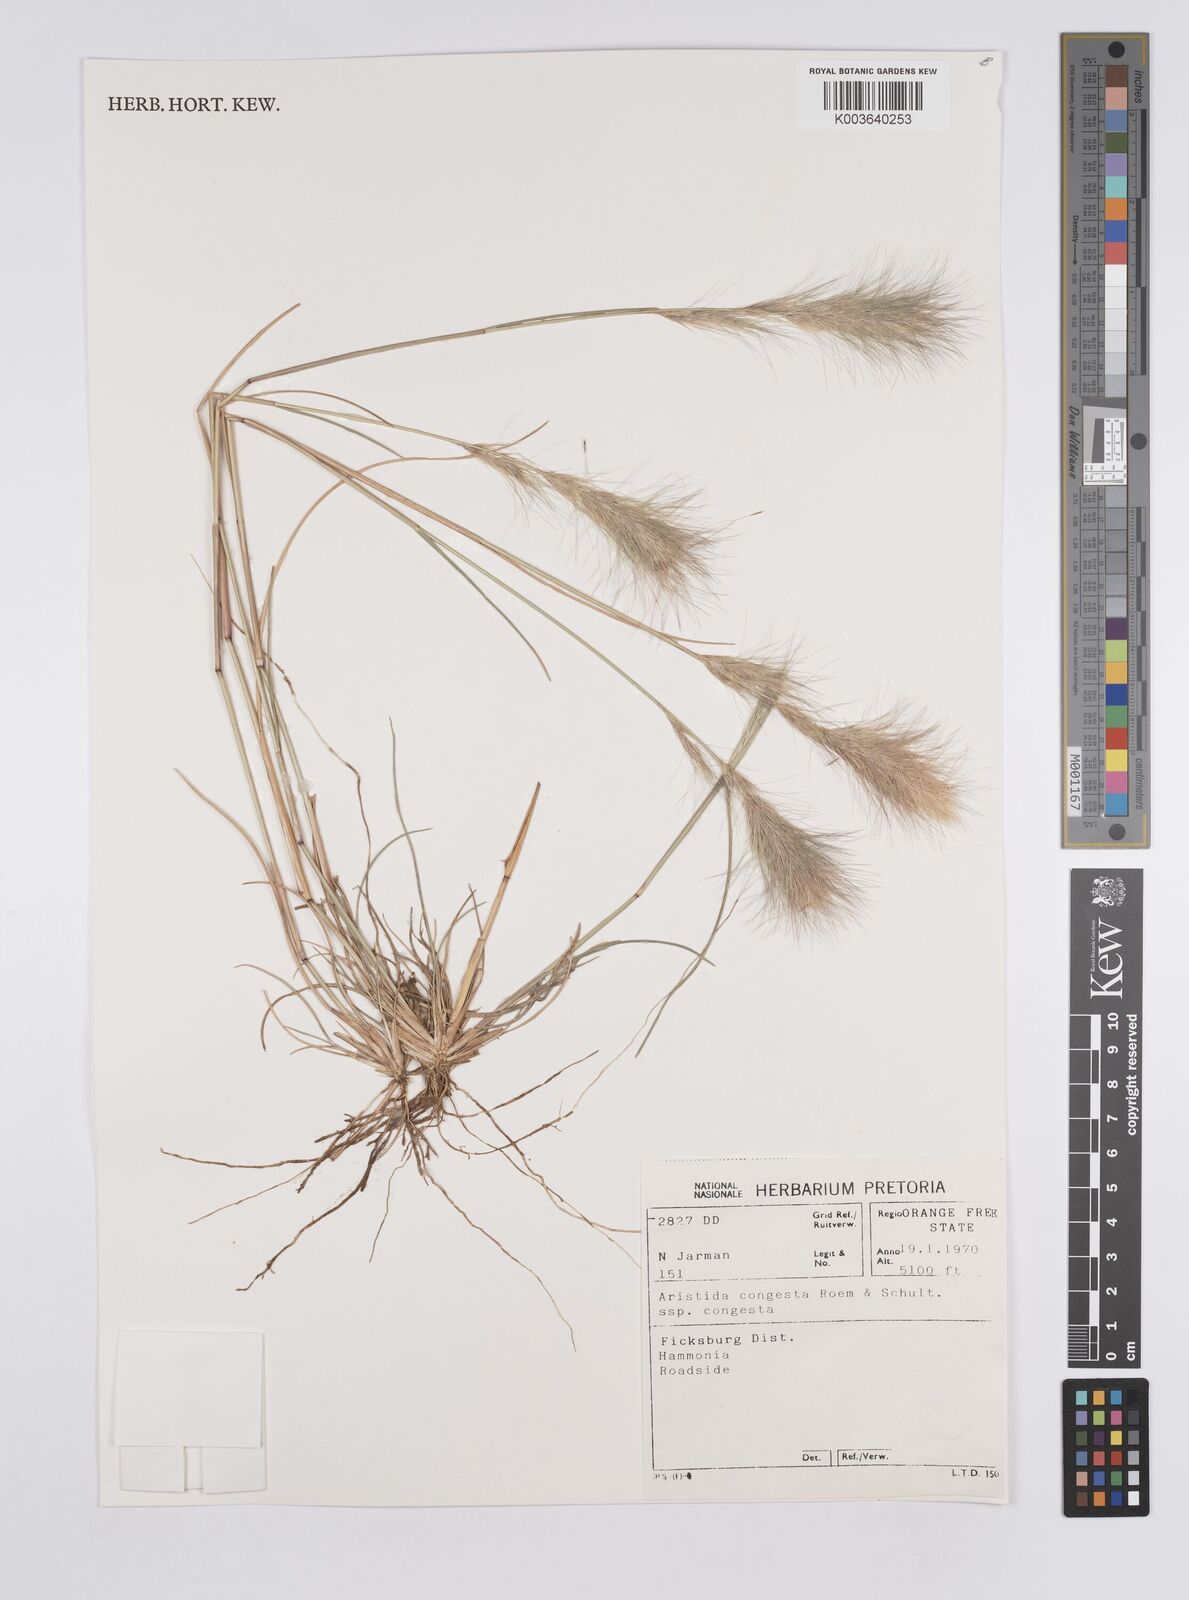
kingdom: Plantae
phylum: Tracheophyta
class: Liliopsida
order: Poales
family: Poaceae
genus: Aristida
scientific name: Aristida congesta
